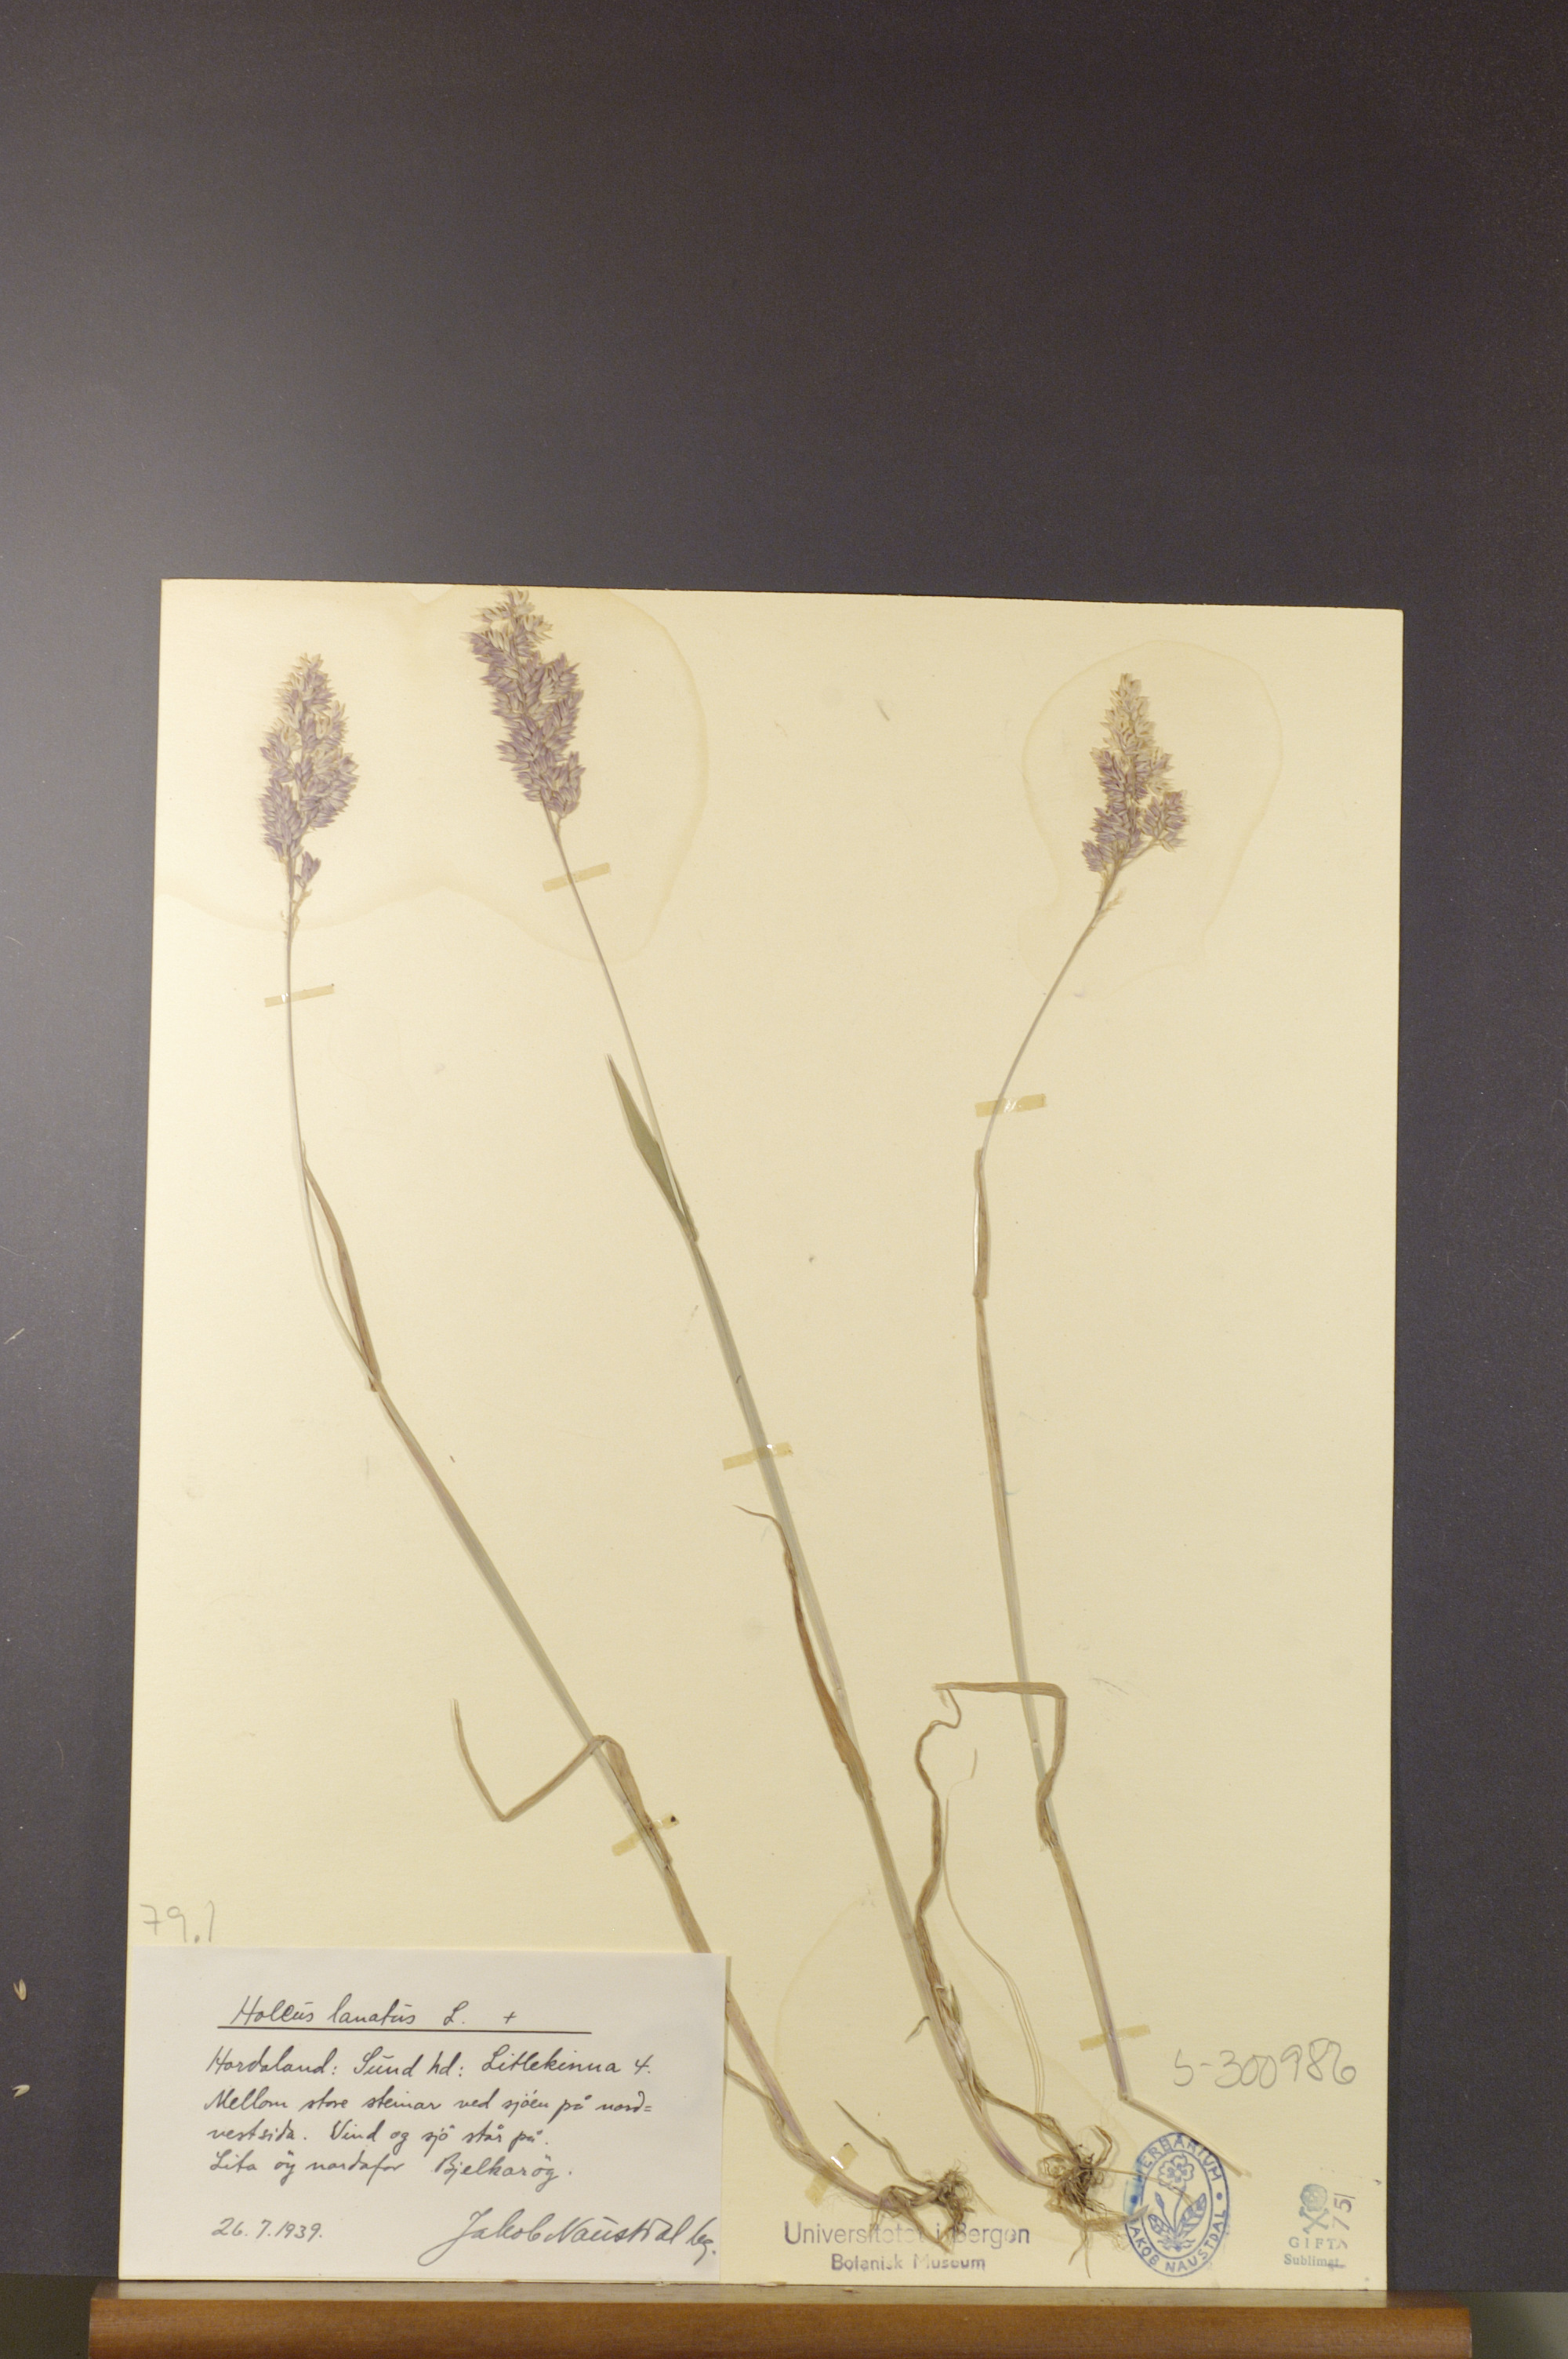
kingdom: Plantae
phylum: Tracheophyta
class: Liliopsida
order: Poales
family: Poaceae
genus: Holcus
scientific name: Holcus lanatus
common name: Yorkshire-fog
